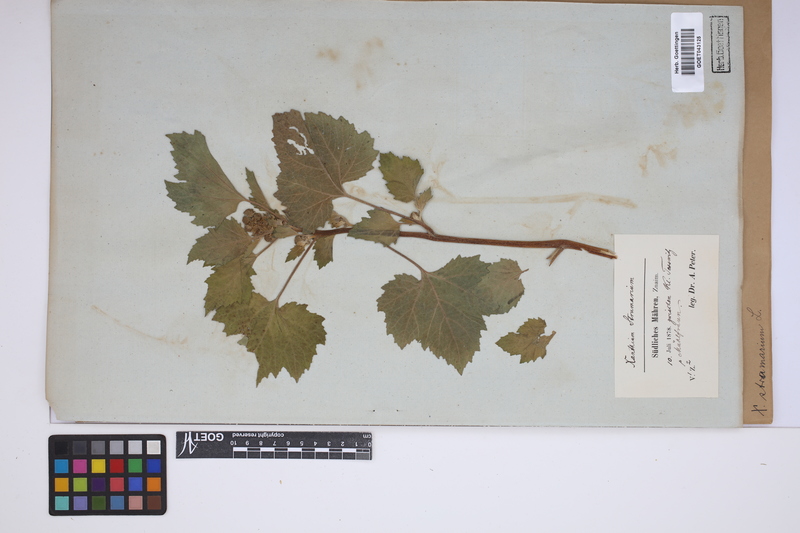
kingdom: Plantae
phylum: Tracheophyta
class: Magnoliopsida
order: Asterales
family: Asteraceae
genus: Xanthium
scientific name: Xanthium strumarium
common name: Rough cocklebur
